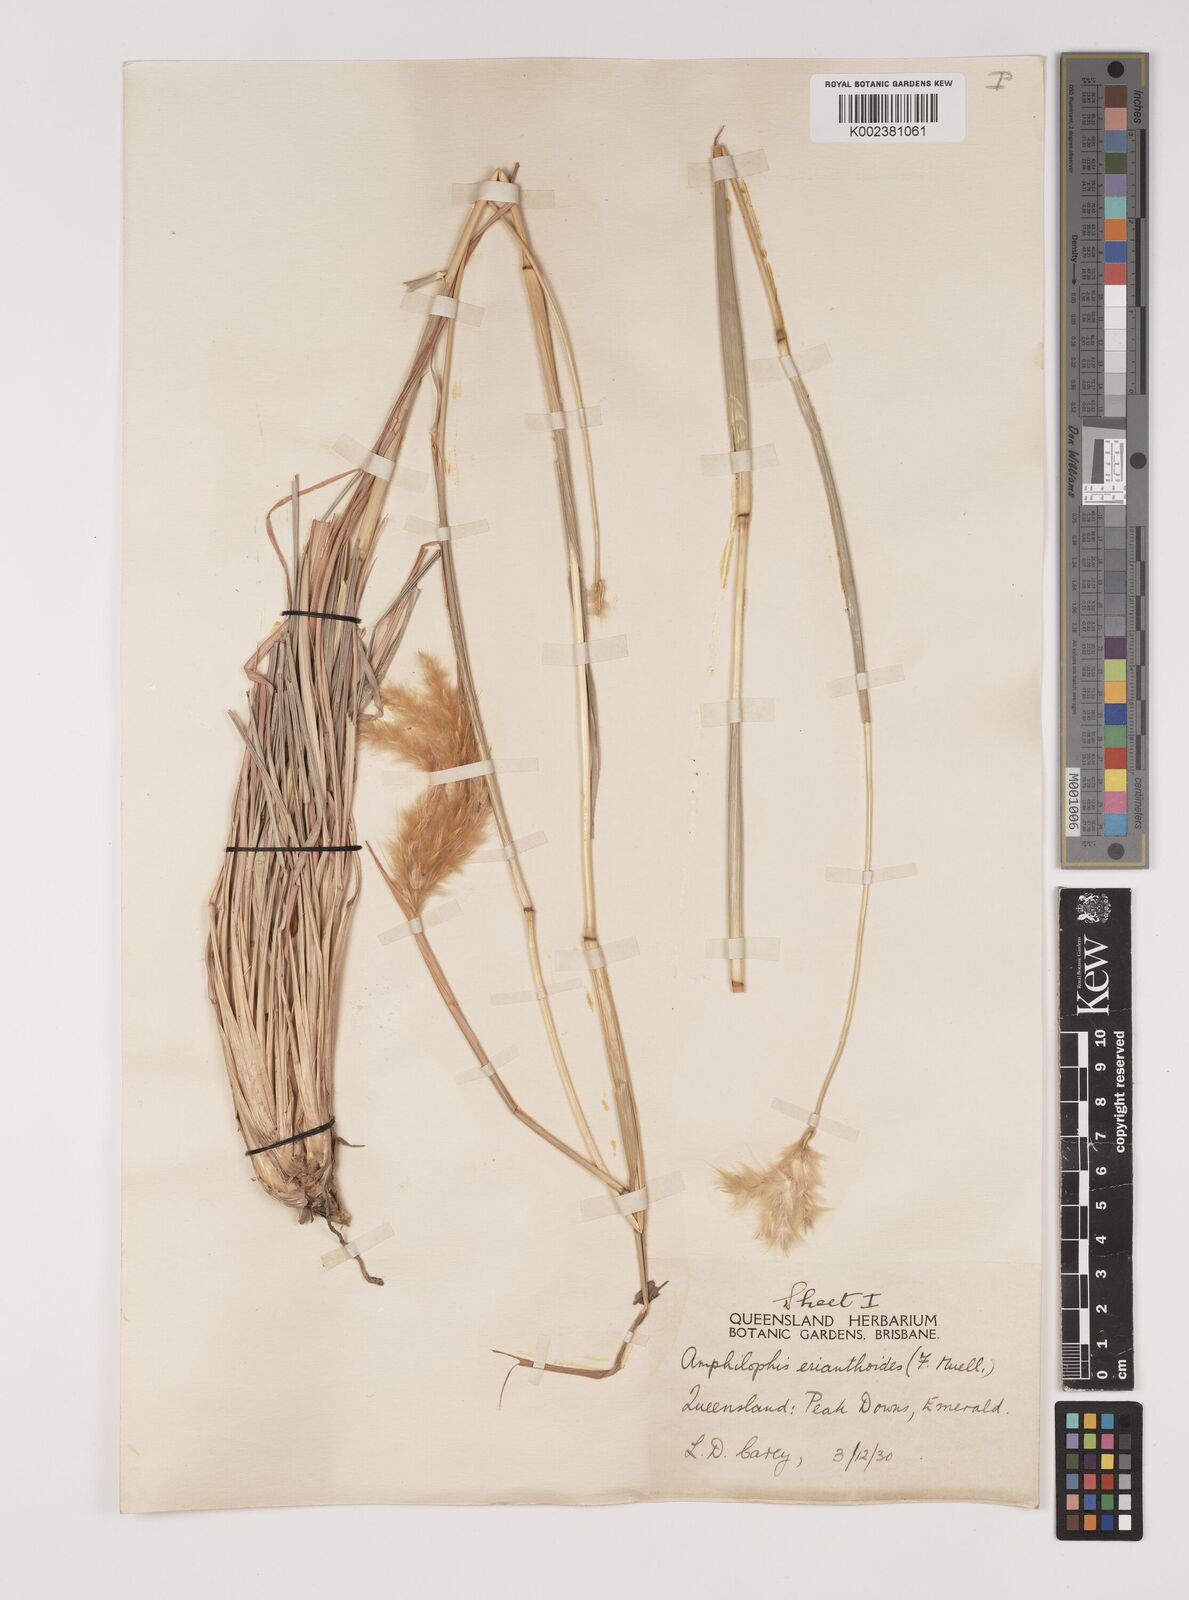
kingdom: Plantae
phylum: Tracheophyta
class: Liliopsida
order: Poales
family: Poaceae
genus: Bothriochloa
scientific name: Bothriochloa erianthoides
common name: Satin-top grass
